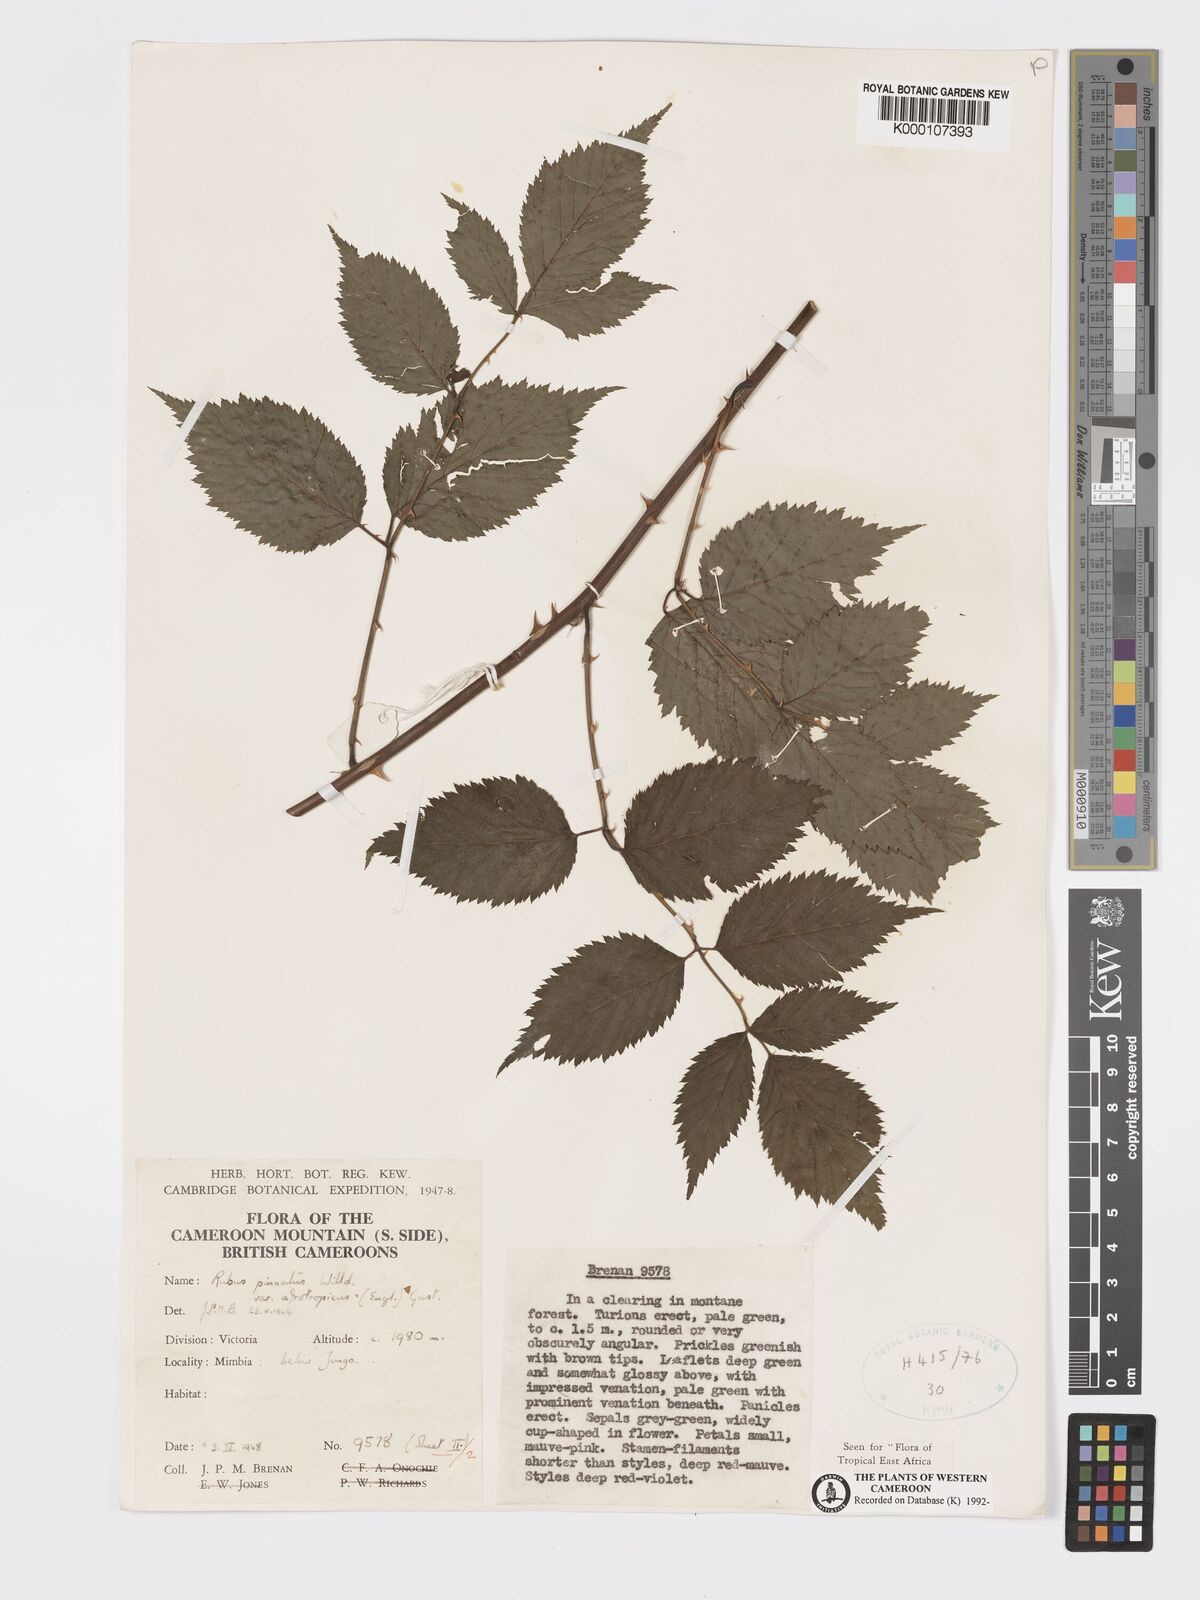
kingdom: Plantae
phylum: Tracheophyta
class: Magnoliopsida
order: Rosales
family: Rosaceae
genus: Rubus
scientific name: Rubus pinnatus
